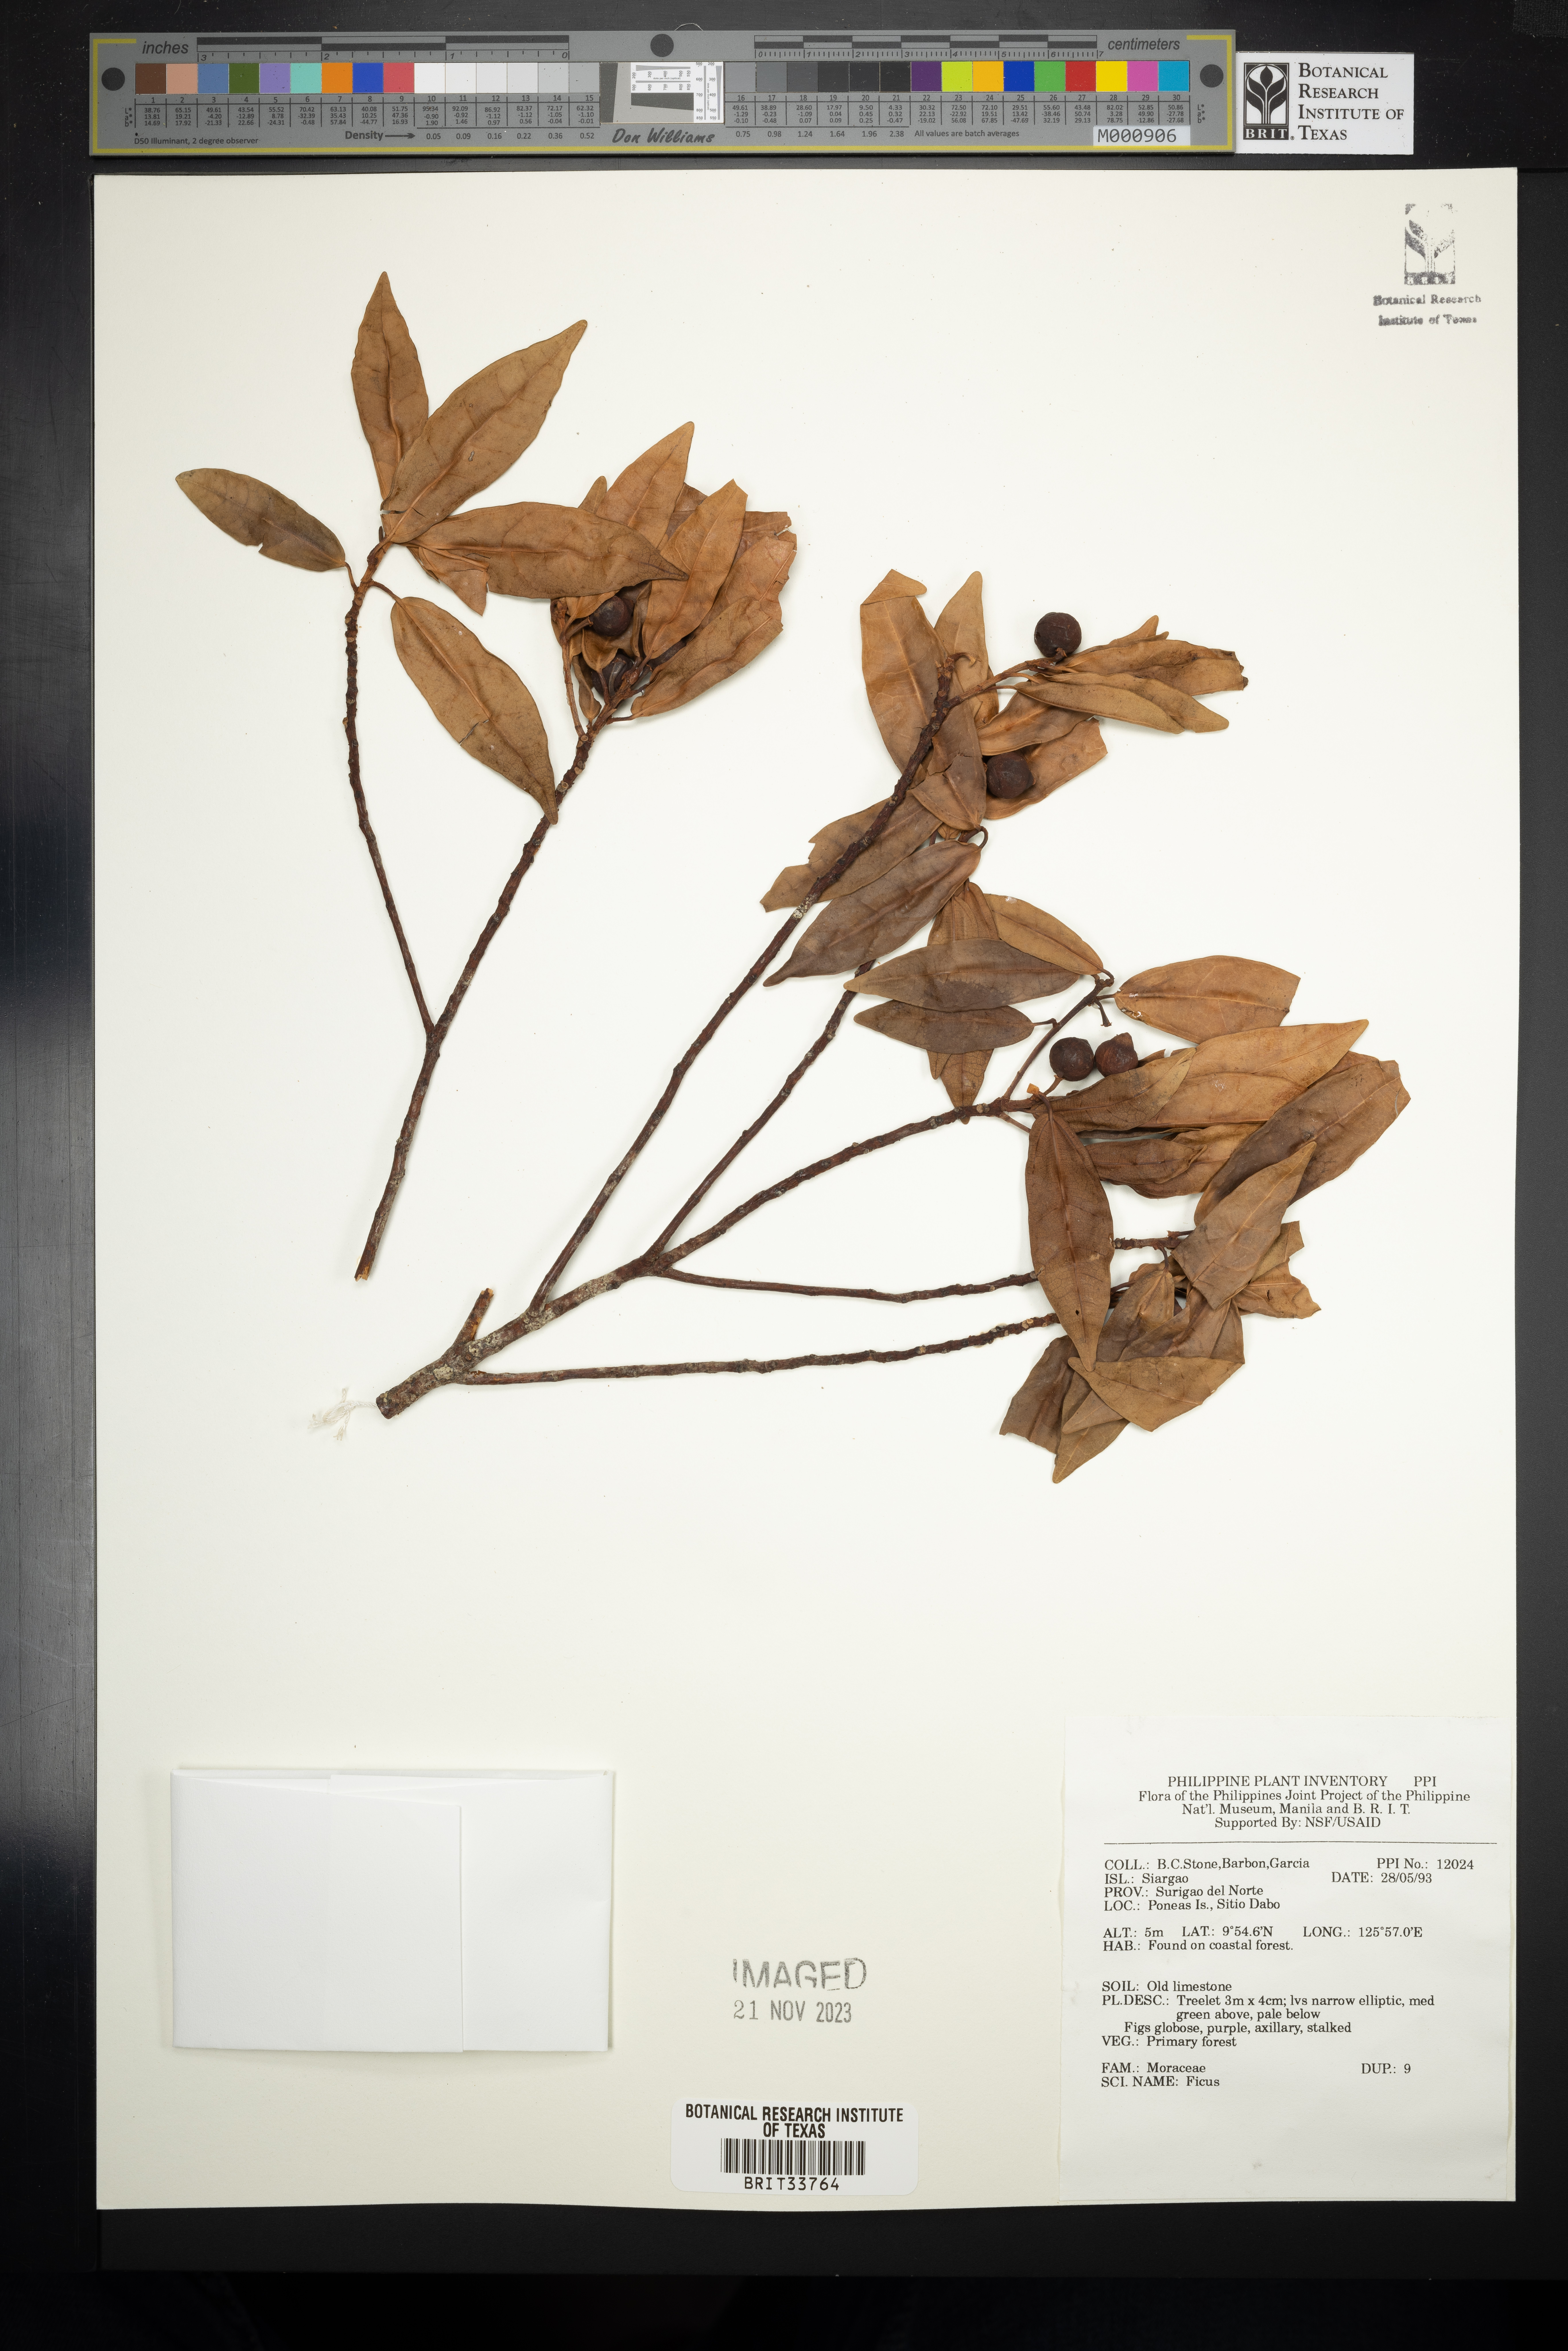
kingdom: Plantae
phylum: Tracheophyta
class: Magnoliopsida
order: Rosales
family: Moraceae
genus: Ficus
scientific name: Ficus
